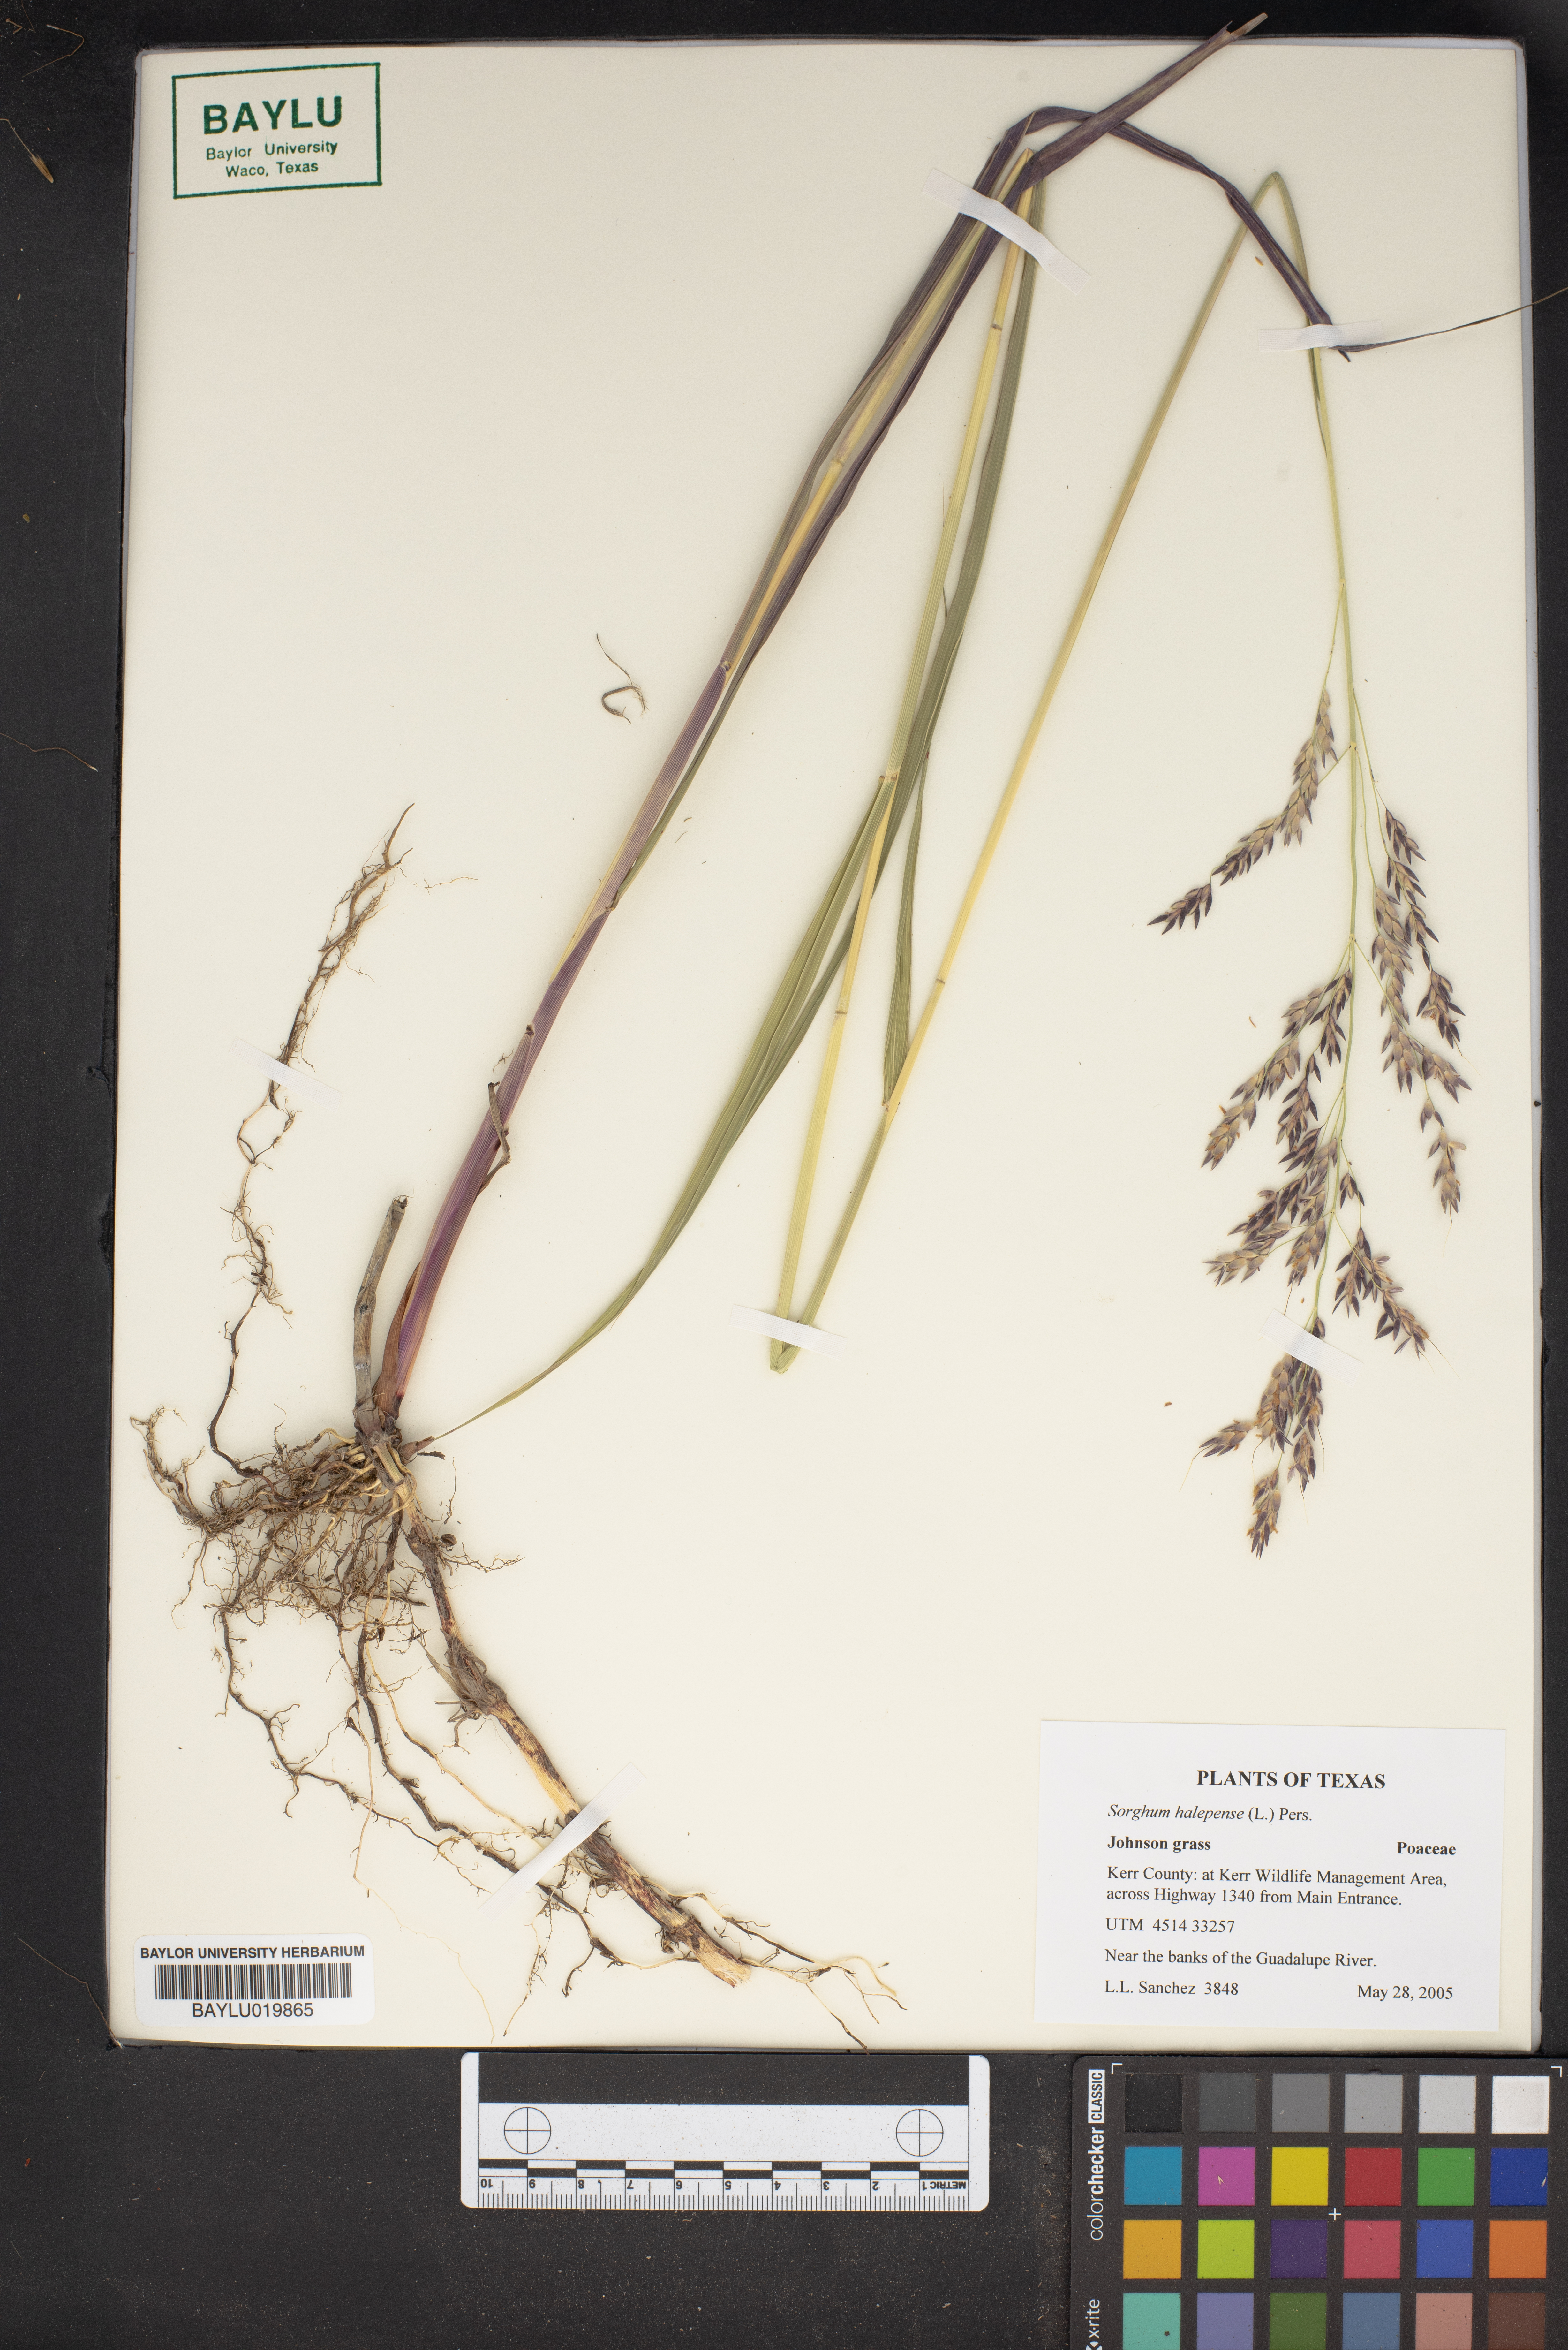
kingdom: Plantae
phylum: Tracheophyta
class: Liliopsida
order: Poales
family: Poaceae
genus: Sorghum
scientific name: Sorghum halepense
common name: Johnson-grass
